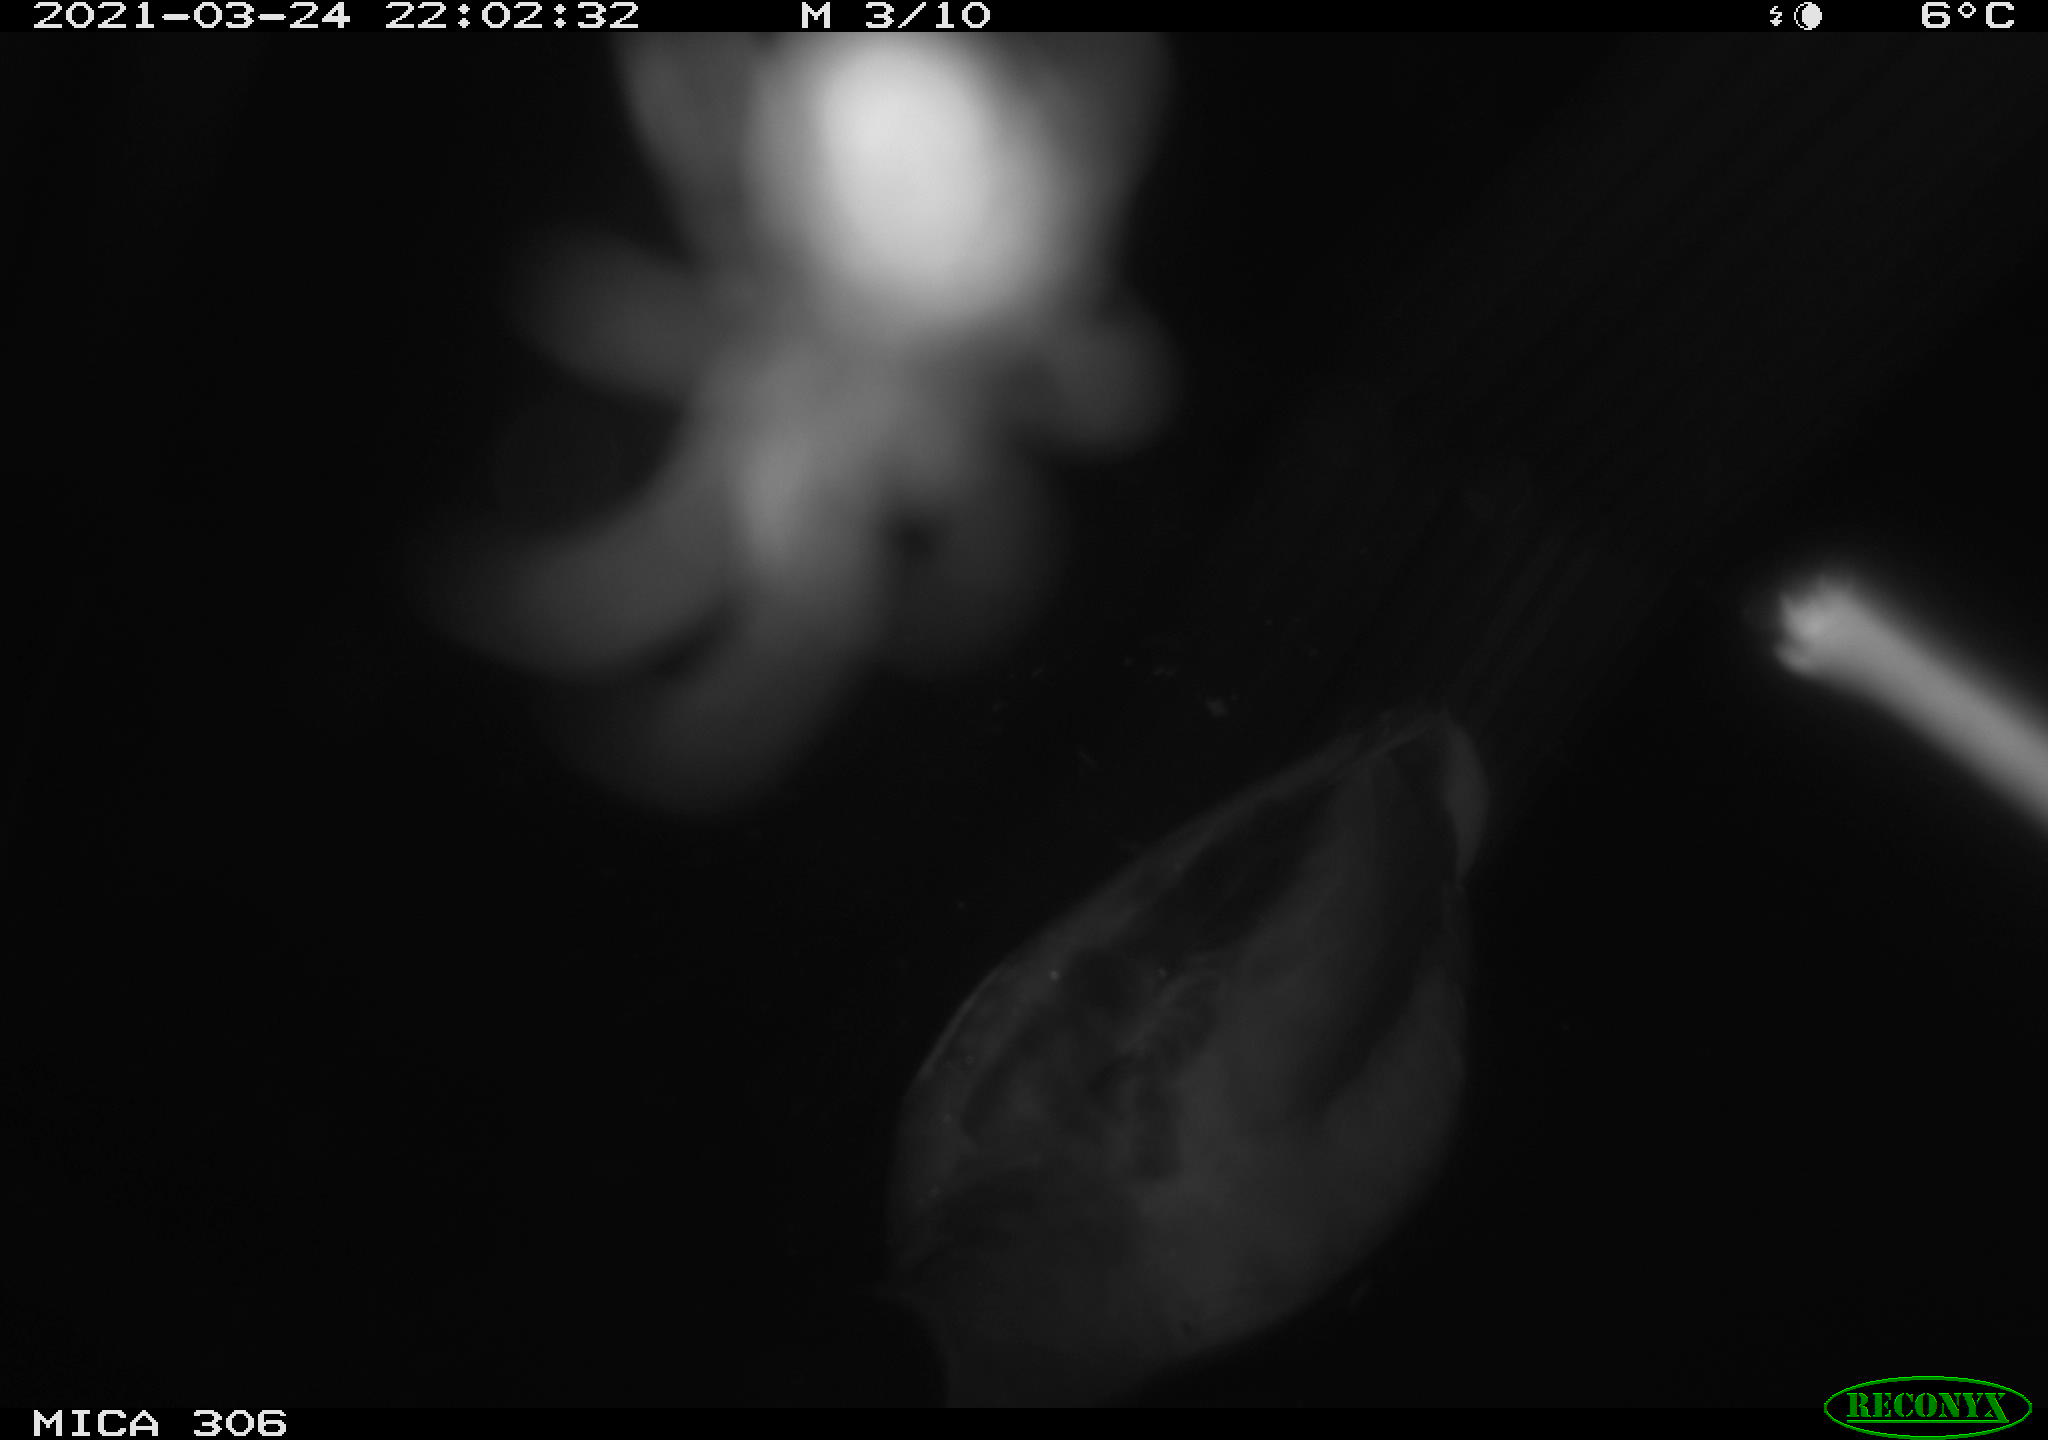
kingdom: Animalia
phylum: Chordata
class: Aves
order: Anseriformes
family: Anatidae
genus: Anas
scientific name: Anas platyrhynchos
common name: Mallard
